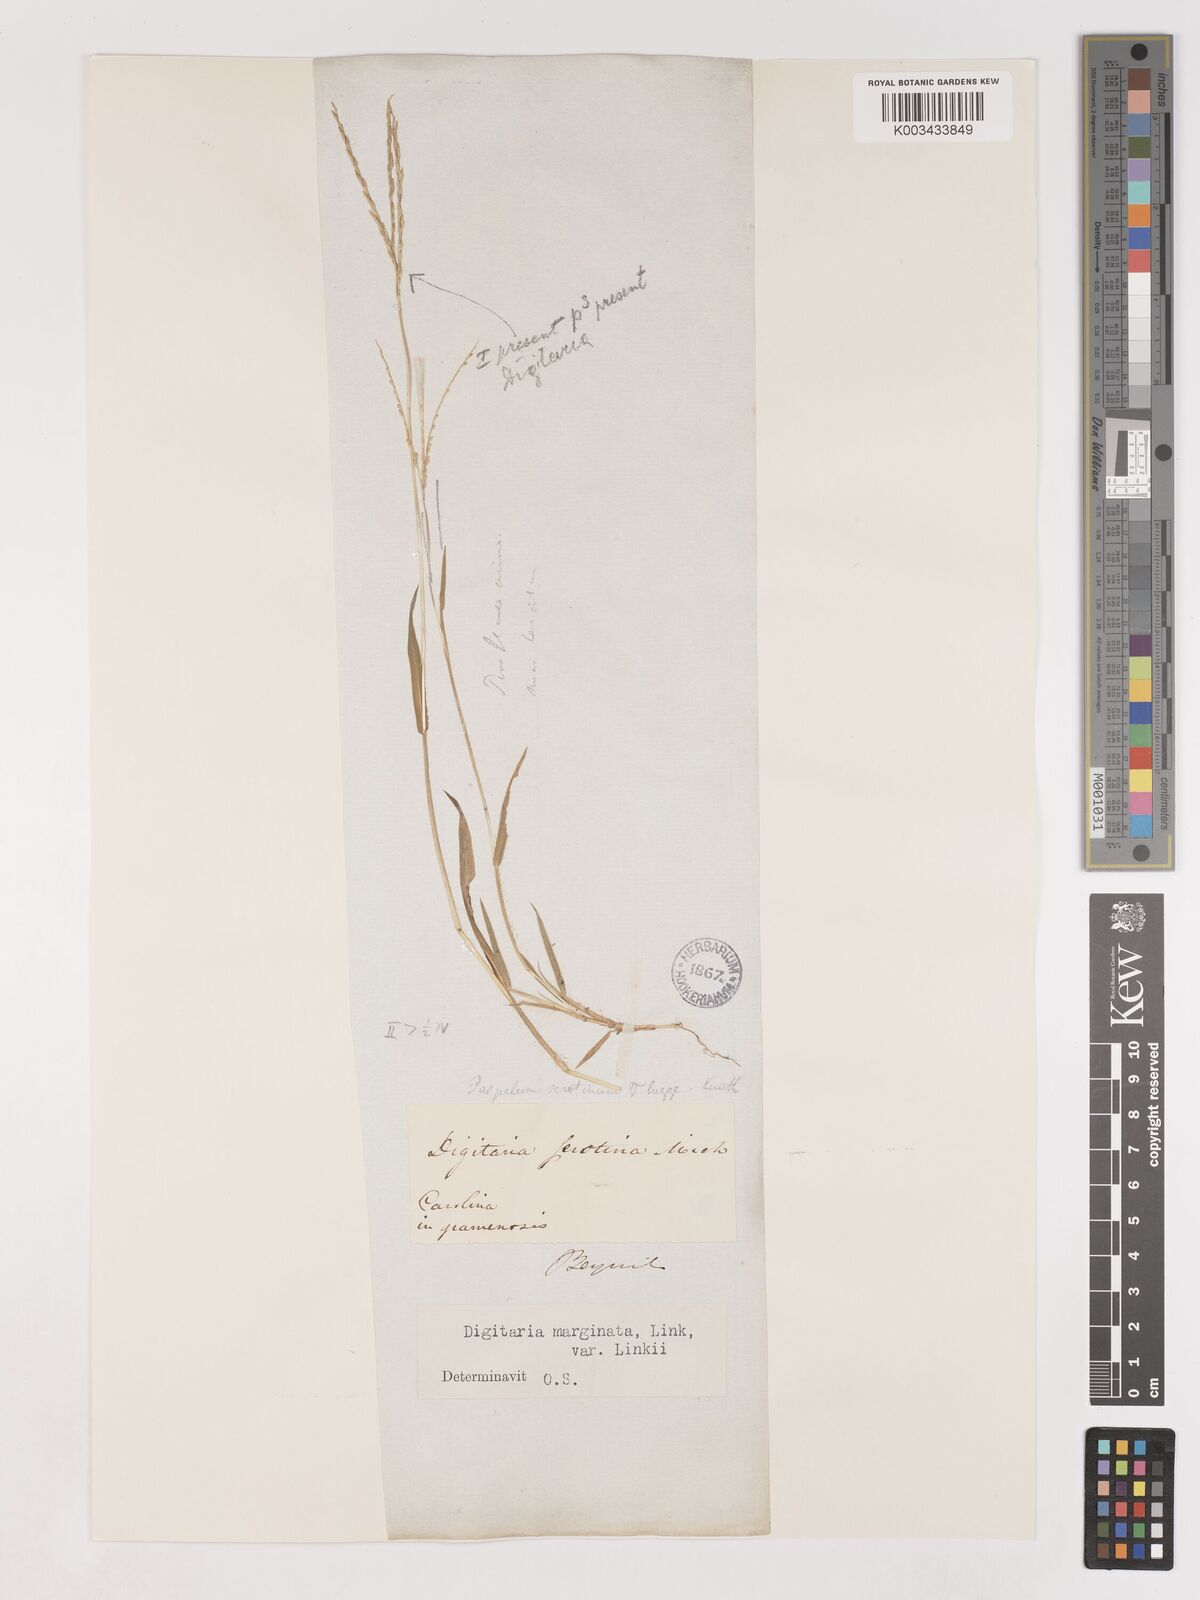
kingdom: Plantae
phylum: Tracheophyta
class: Liliopsida
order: Poales
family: Poaceae
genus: Digitaria
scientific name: Digitaria ciliaris
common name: Tropical finger-grass
